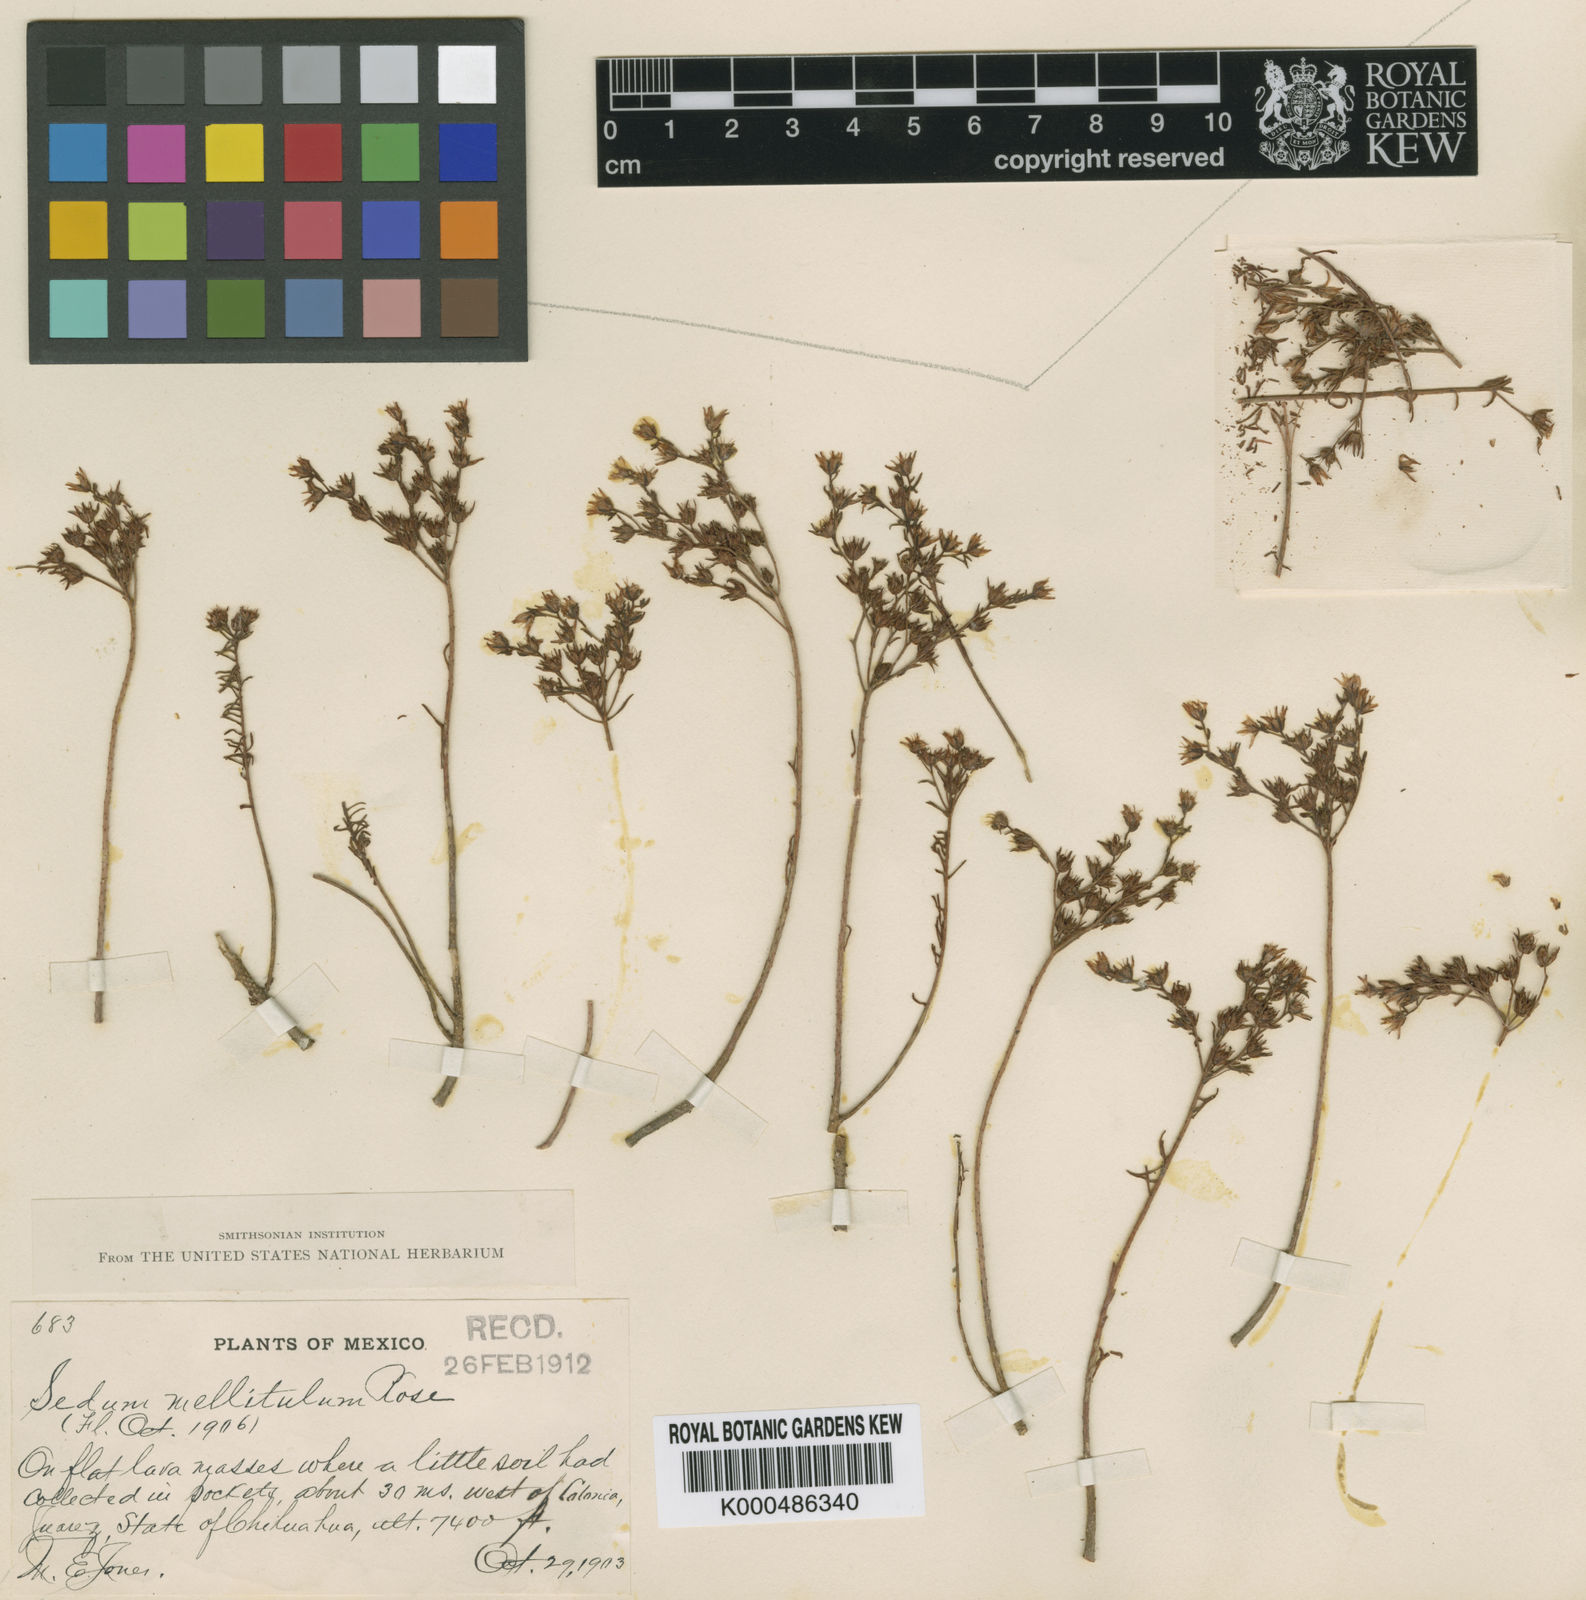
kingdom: Plantae
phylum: Tracheophyta
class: Magnoliopsida
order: Saxifragales
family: Crassulaceae
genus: Sedum
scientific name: Sedum mellitulum
